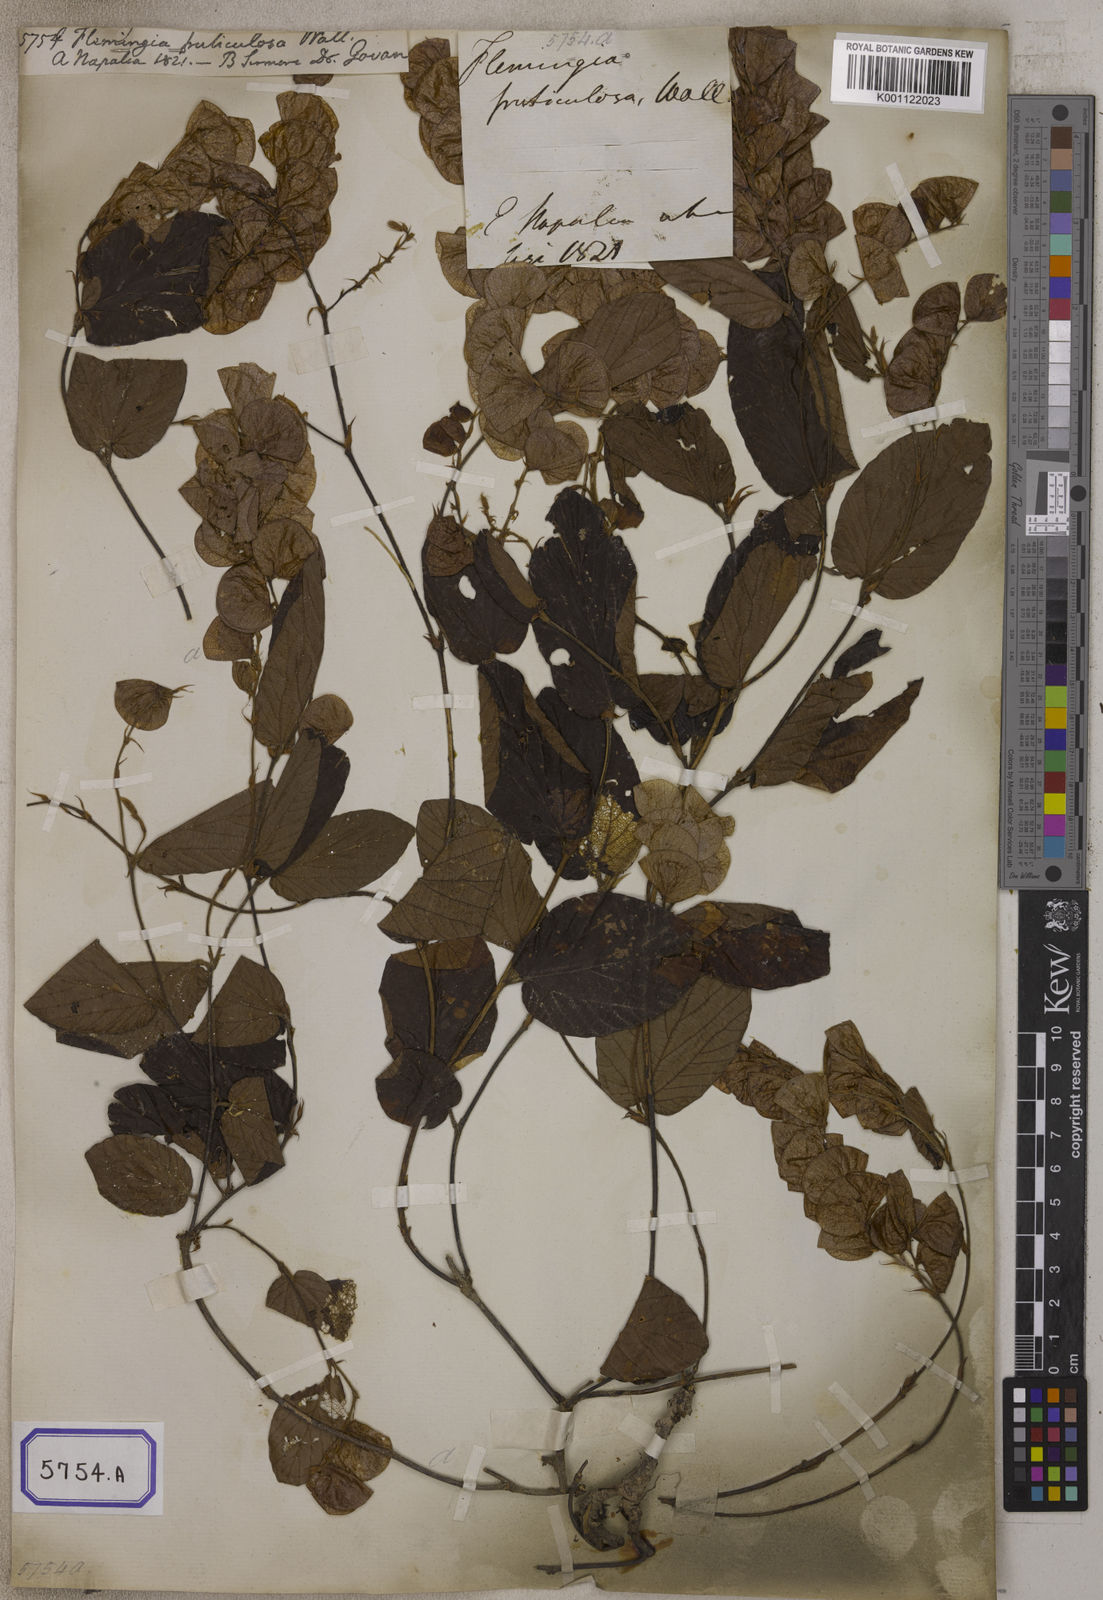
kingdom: Plantae
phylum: Tracheophyta
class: Magnoliopsida
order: Fabales
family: Fabaceae
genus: Flemingia
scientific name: Flemingia
